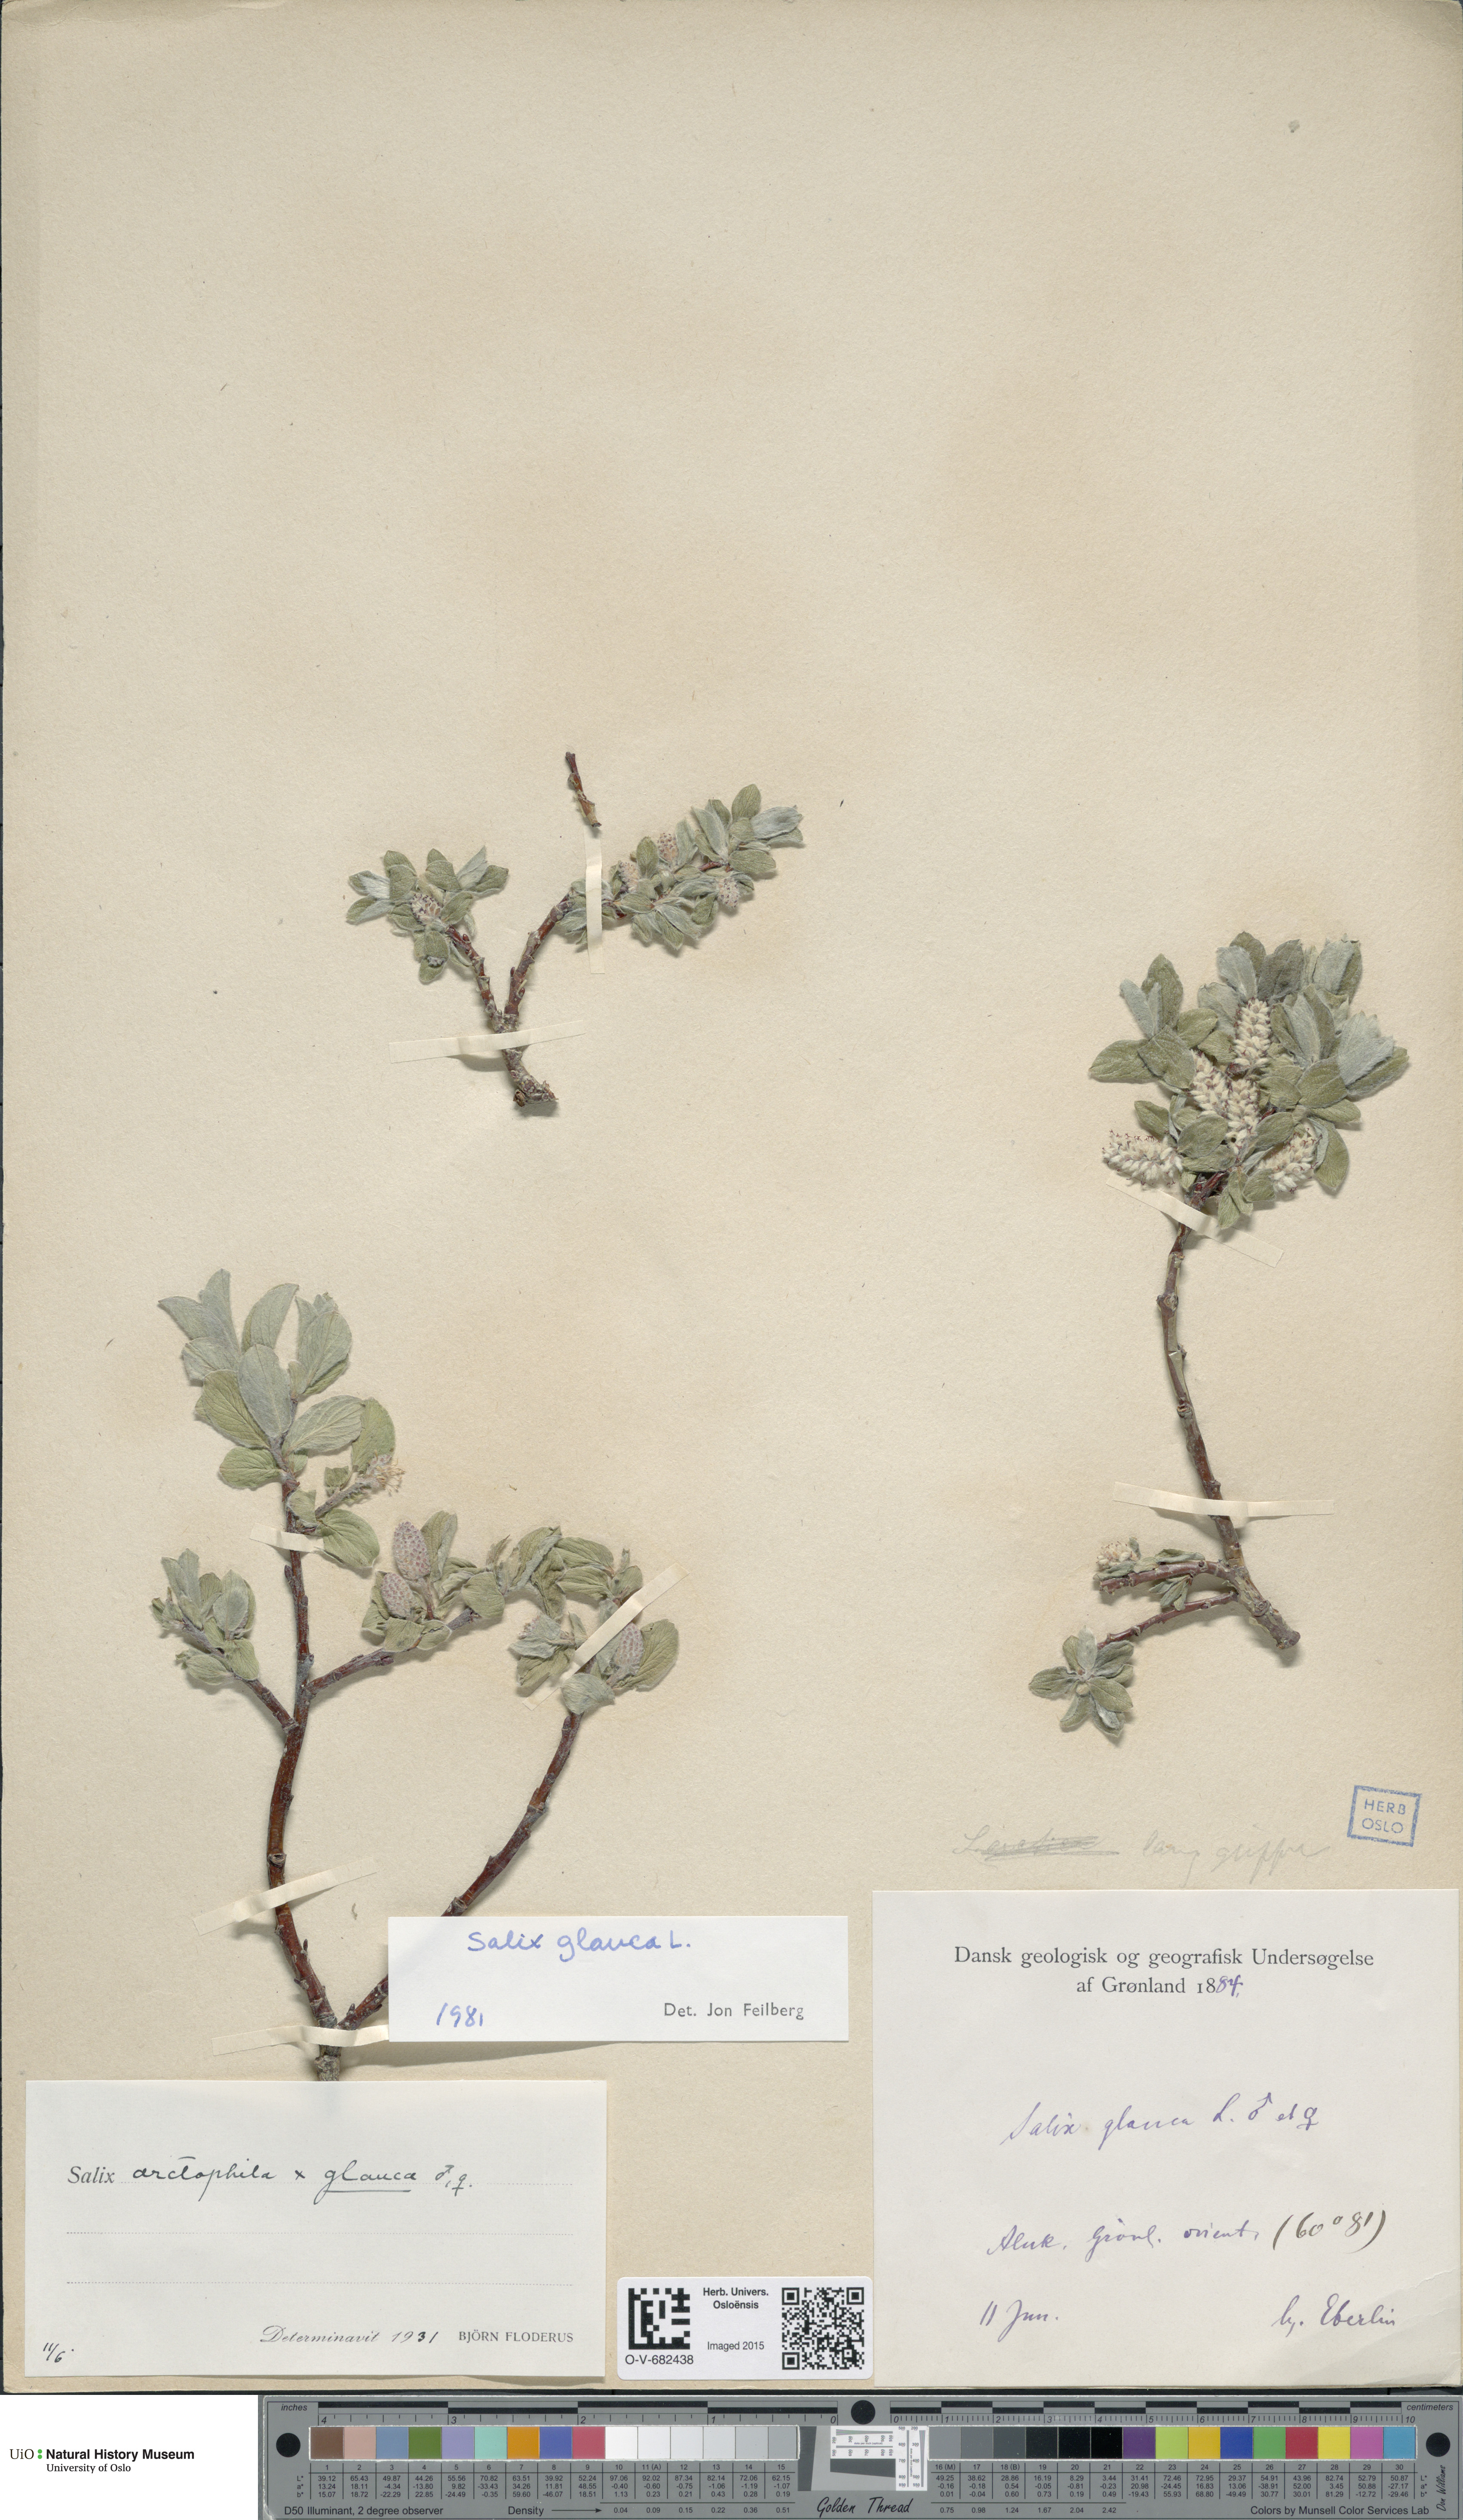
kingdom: Plantae
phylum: Tracheophyta
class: Magnoliopsida
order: Malpighiales
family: Salicaceae
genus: Salix
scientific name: Salix glauca
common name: Glaucous willow
